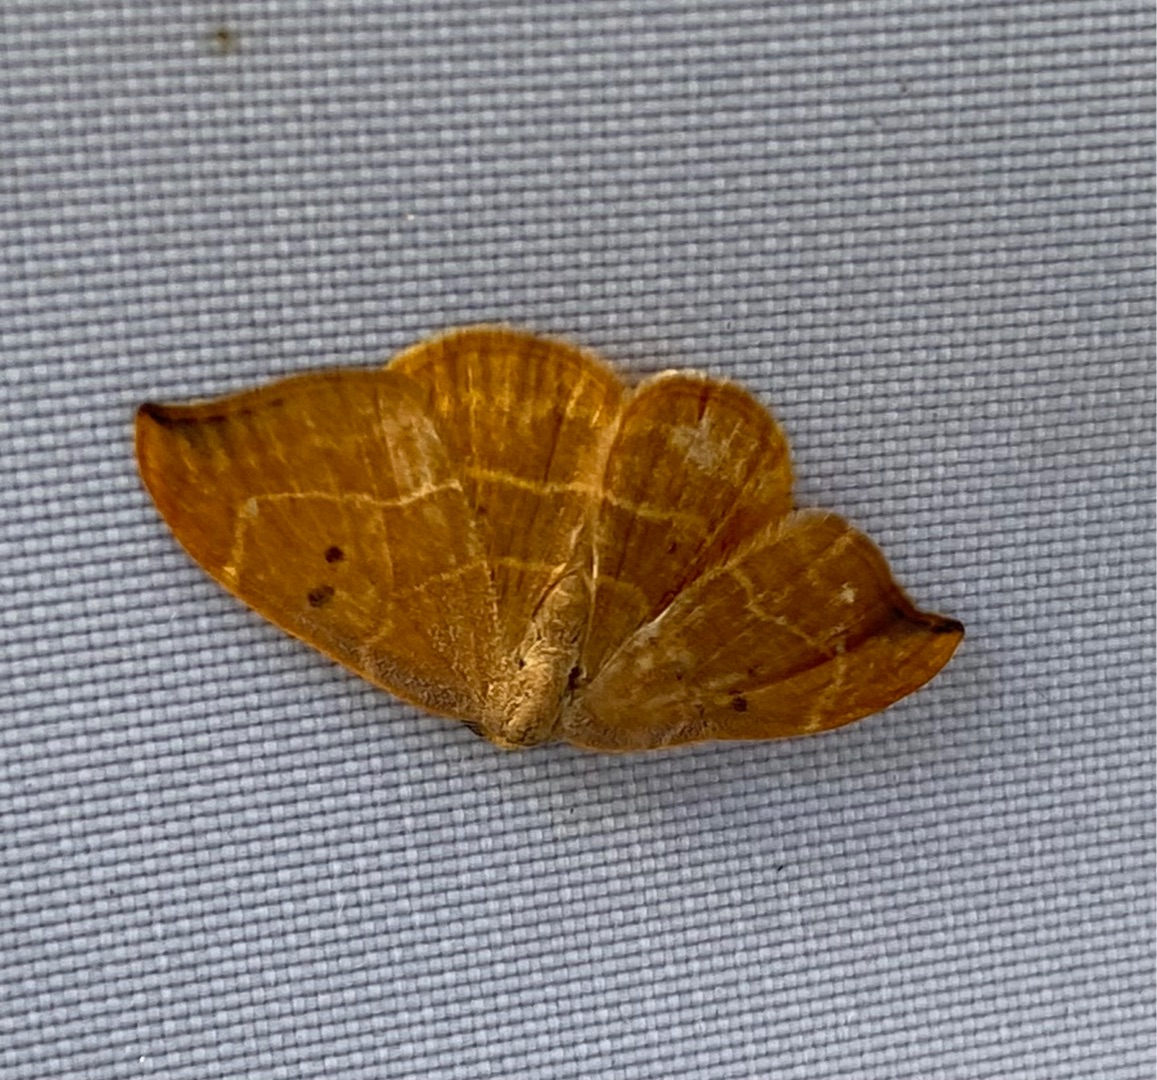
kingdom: Animalia
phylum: Arthropoda
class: Insecta
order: Lepidoptera
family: Drepanidae
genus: Watsonalla
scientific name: Watsonalla binaria
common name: Toplettet seglvinge
